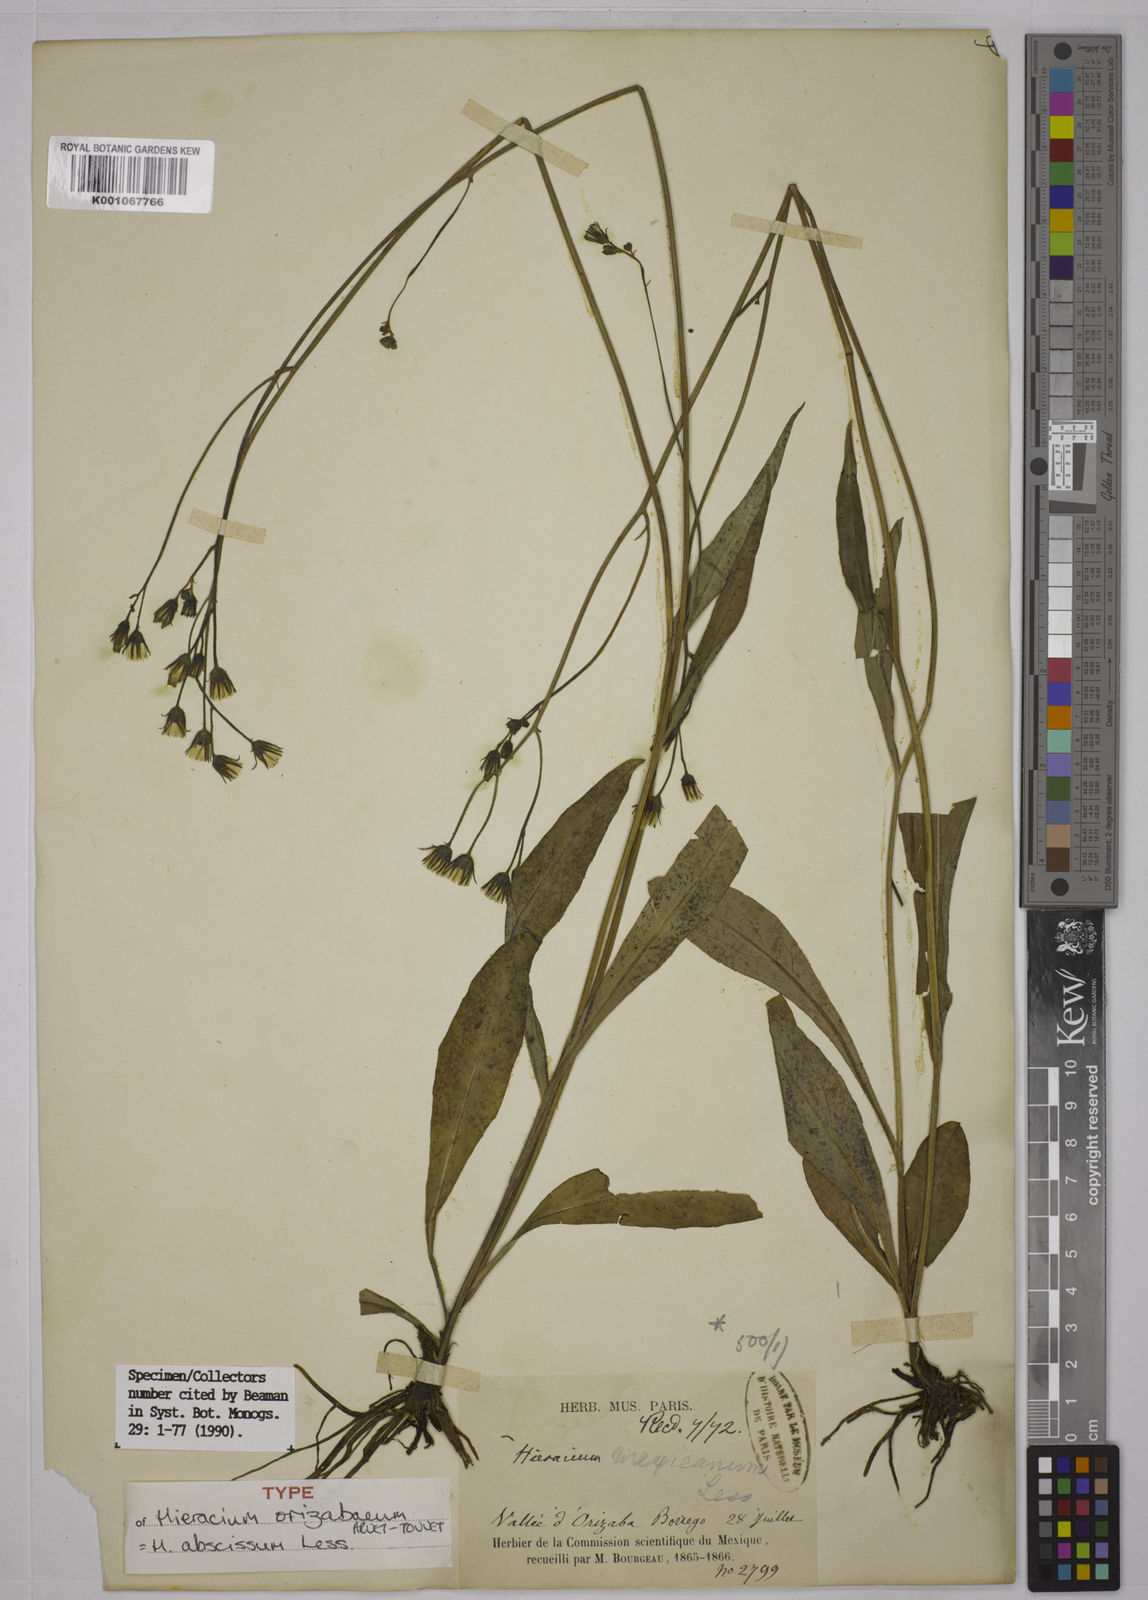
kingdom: Plantae
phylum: Tracheophyta
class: Magnoliopsida
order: Asterales
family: Asteraceae
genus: Hieracium
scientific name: Hieracium abscissum
